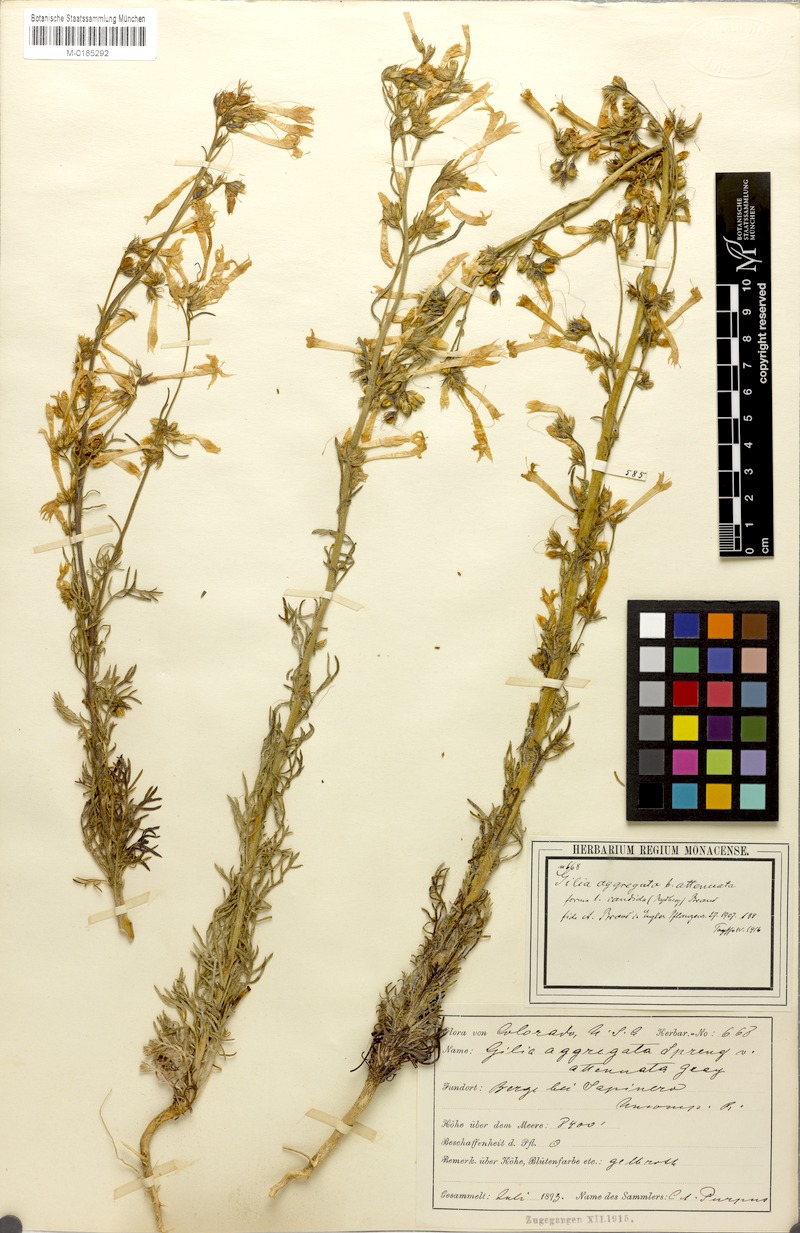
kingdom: Plantae
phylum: Tracheophyta
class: Magnoliopsida
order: Ericales
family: Polemoniaceae
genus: Ipomopsis
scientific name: Ipomopsis aggregata
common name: Scarlet gilia
